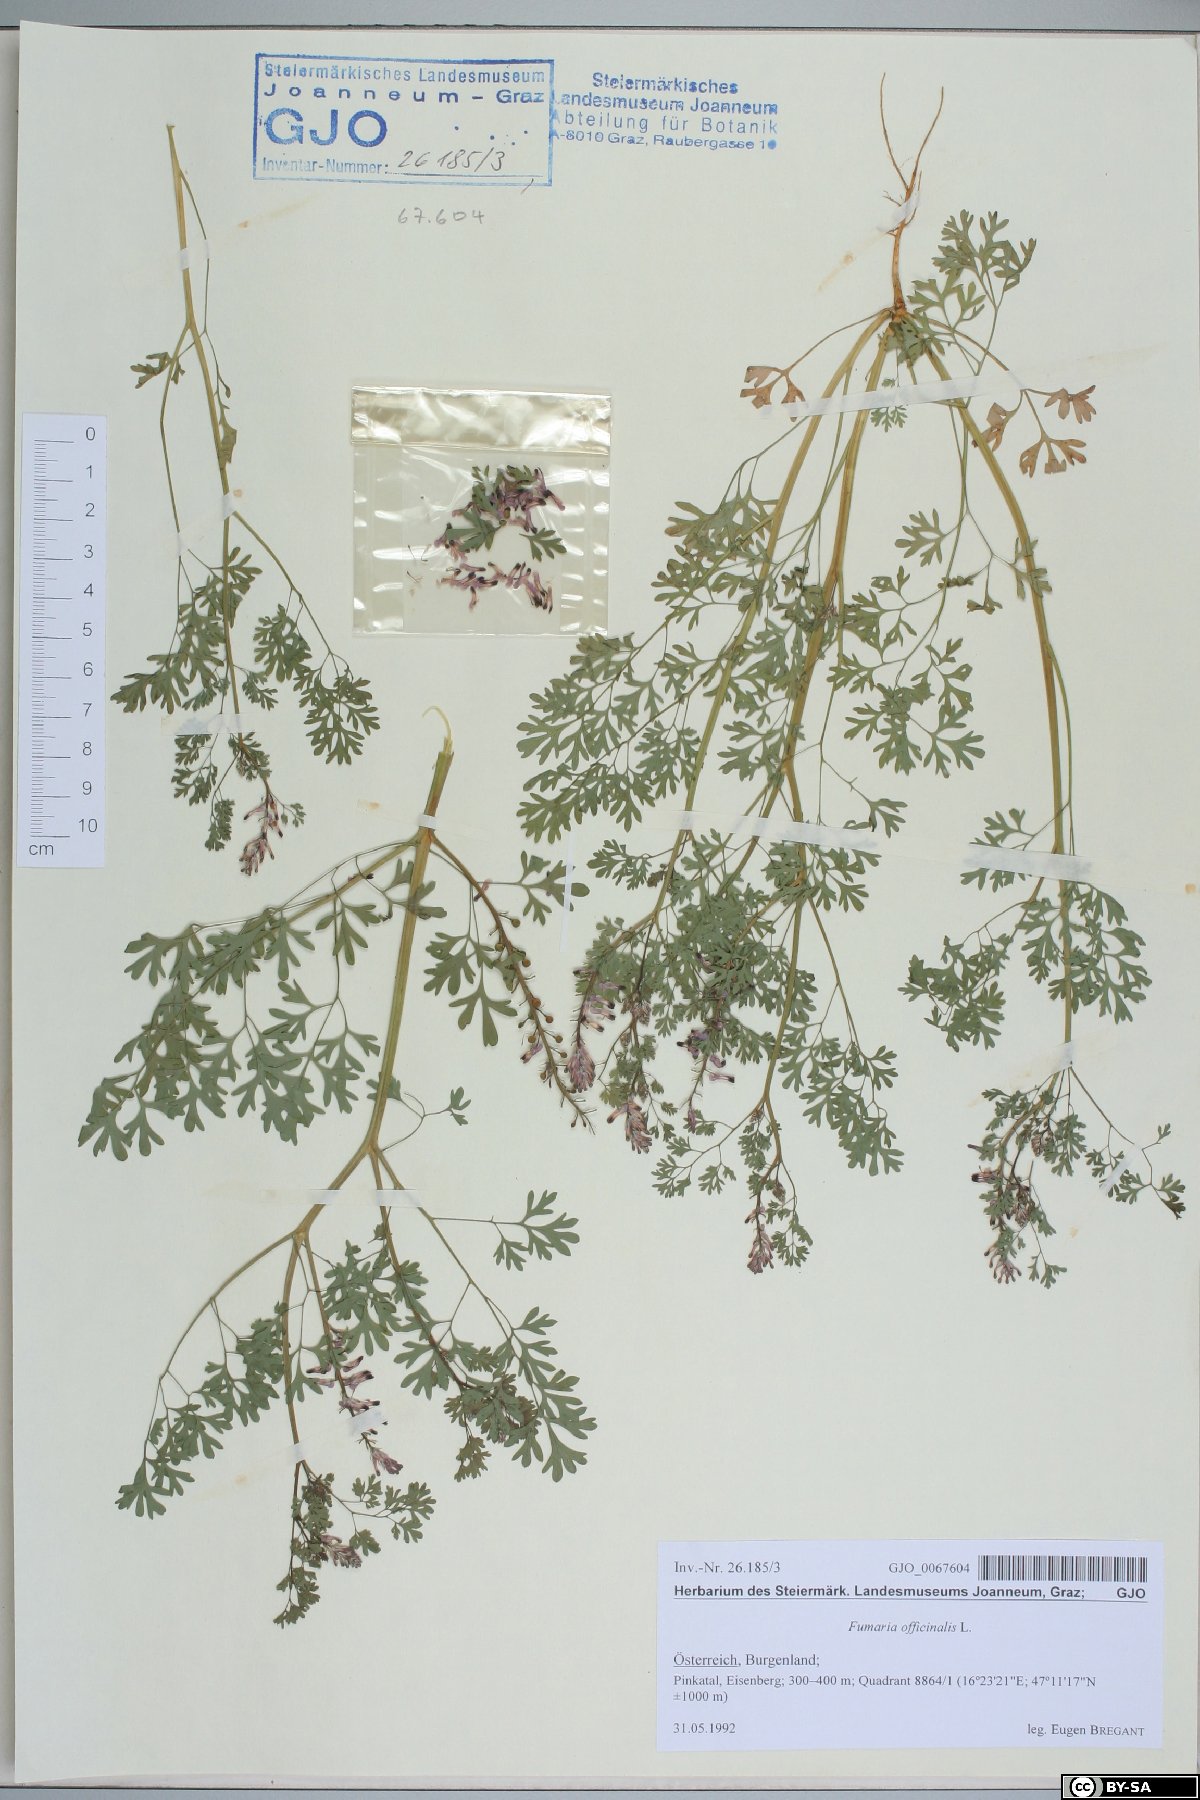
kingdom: Plantae
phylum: Tracheophyta
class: Magnoliopsida
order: Ranunculales
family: Papaveraceae
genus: Fumaria
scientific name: Fumaria officinalis
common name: Common fumitory
